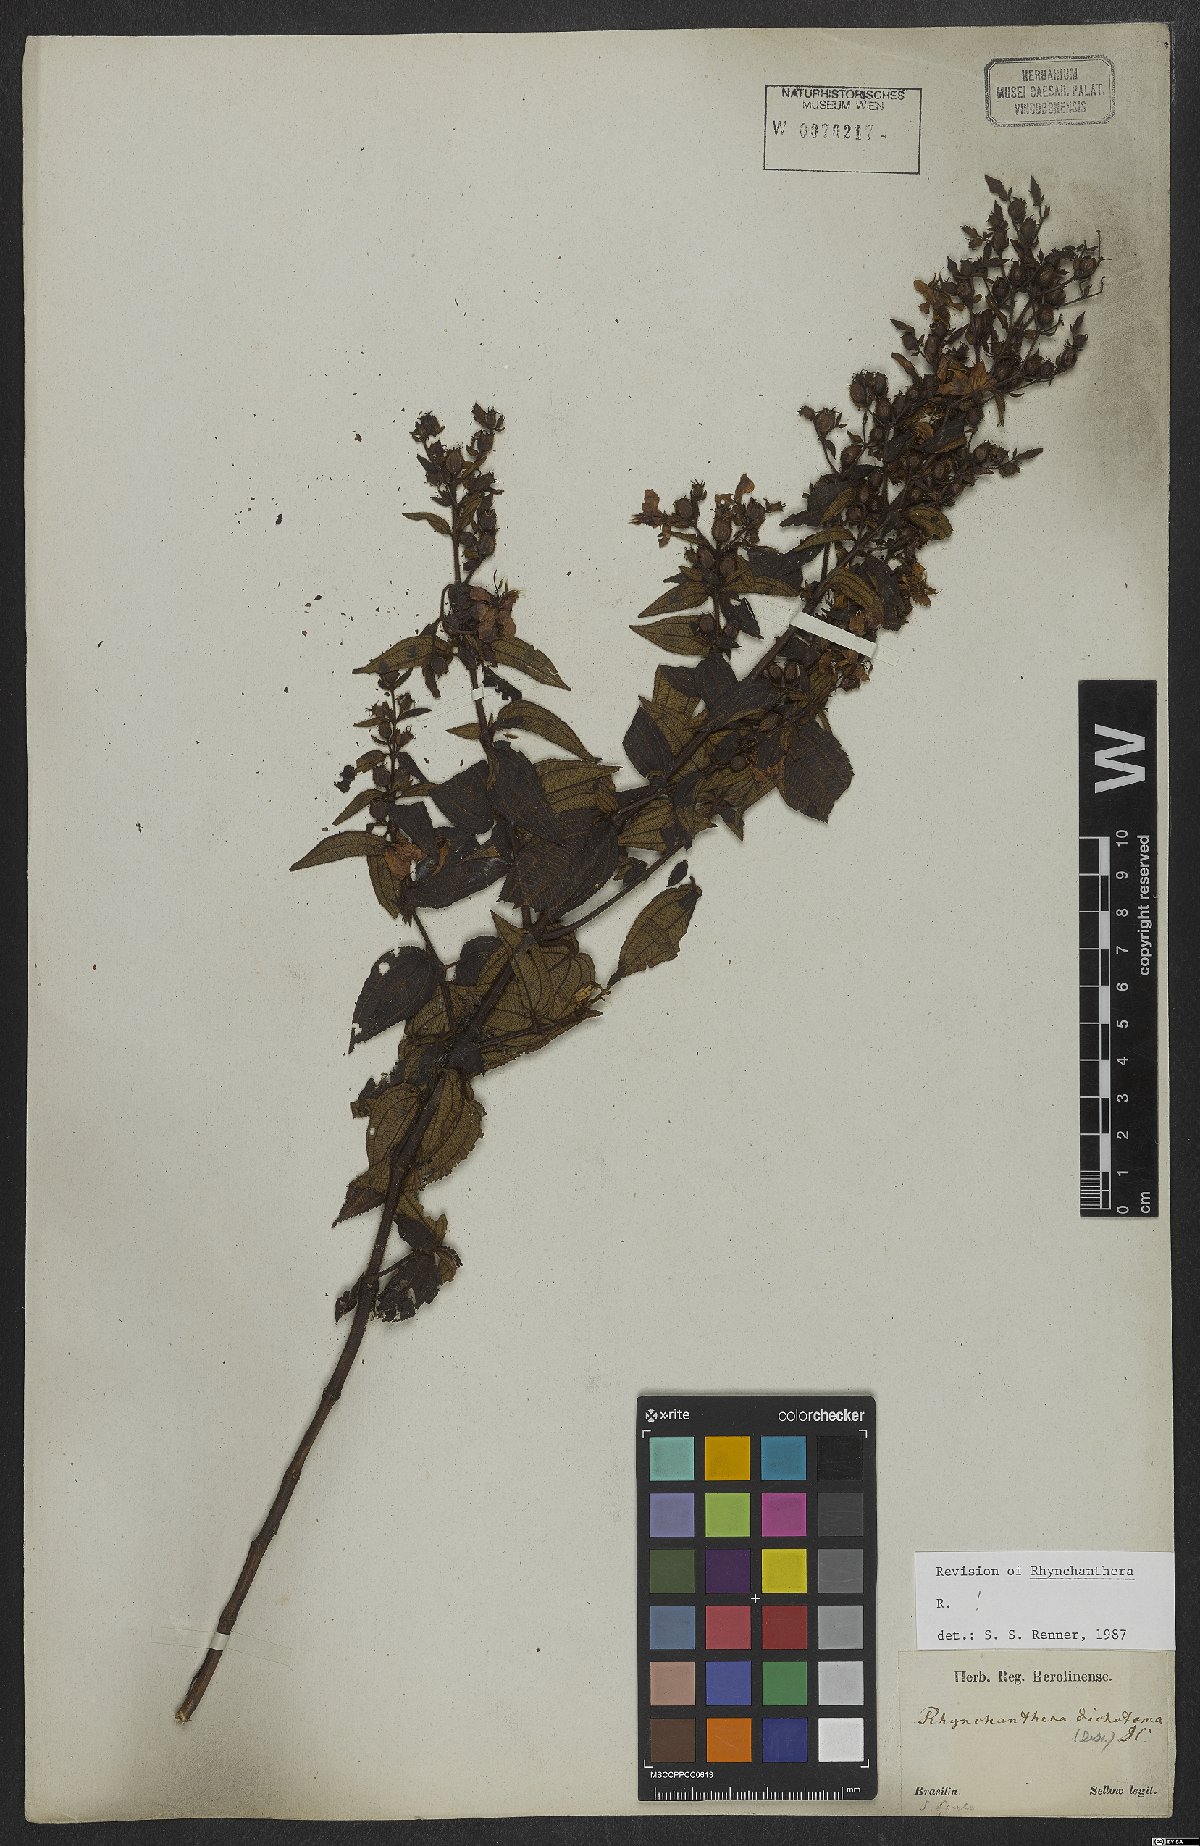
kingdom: Plantae
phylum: Tracheophyta
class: Magnoliopsida
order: Myrtales
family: Melastomataceae
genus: Rhynchanthera
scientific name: Rhynchanthera dichotoma
